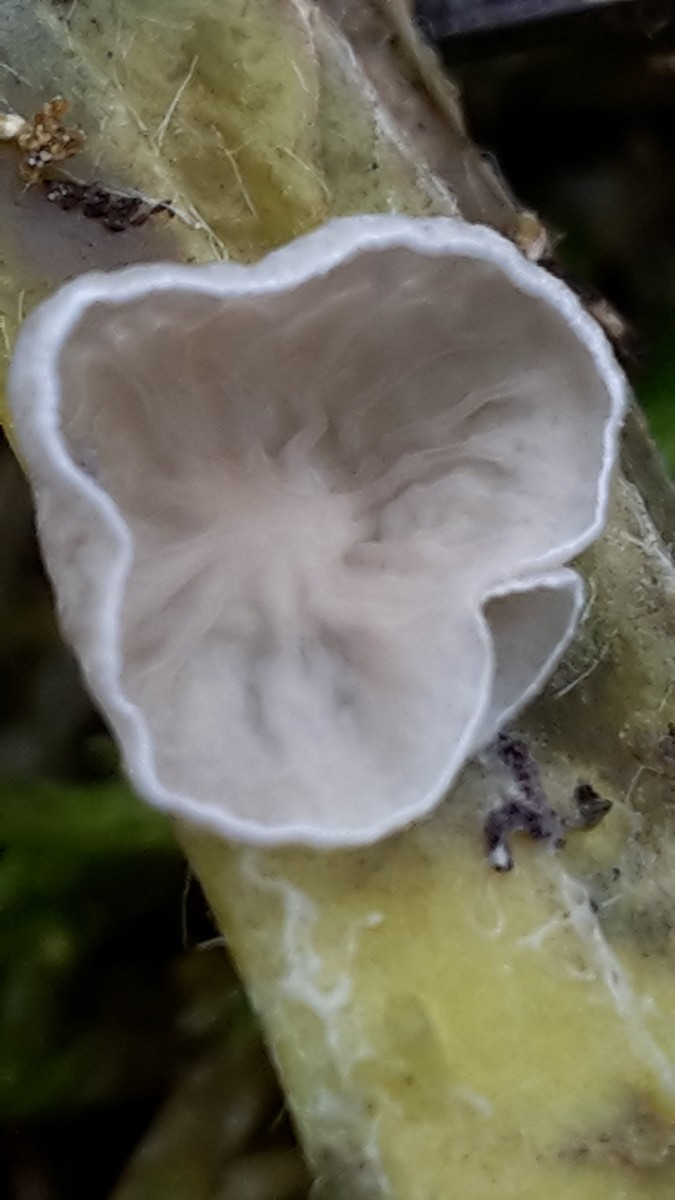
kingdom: Fungi
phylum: Basidiomycota
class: Agaricomycetes
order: Agaricales
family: Hygrophoraceae
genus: Arrhenia
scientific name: Arrhenia retiruga
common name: lille fontænehat
